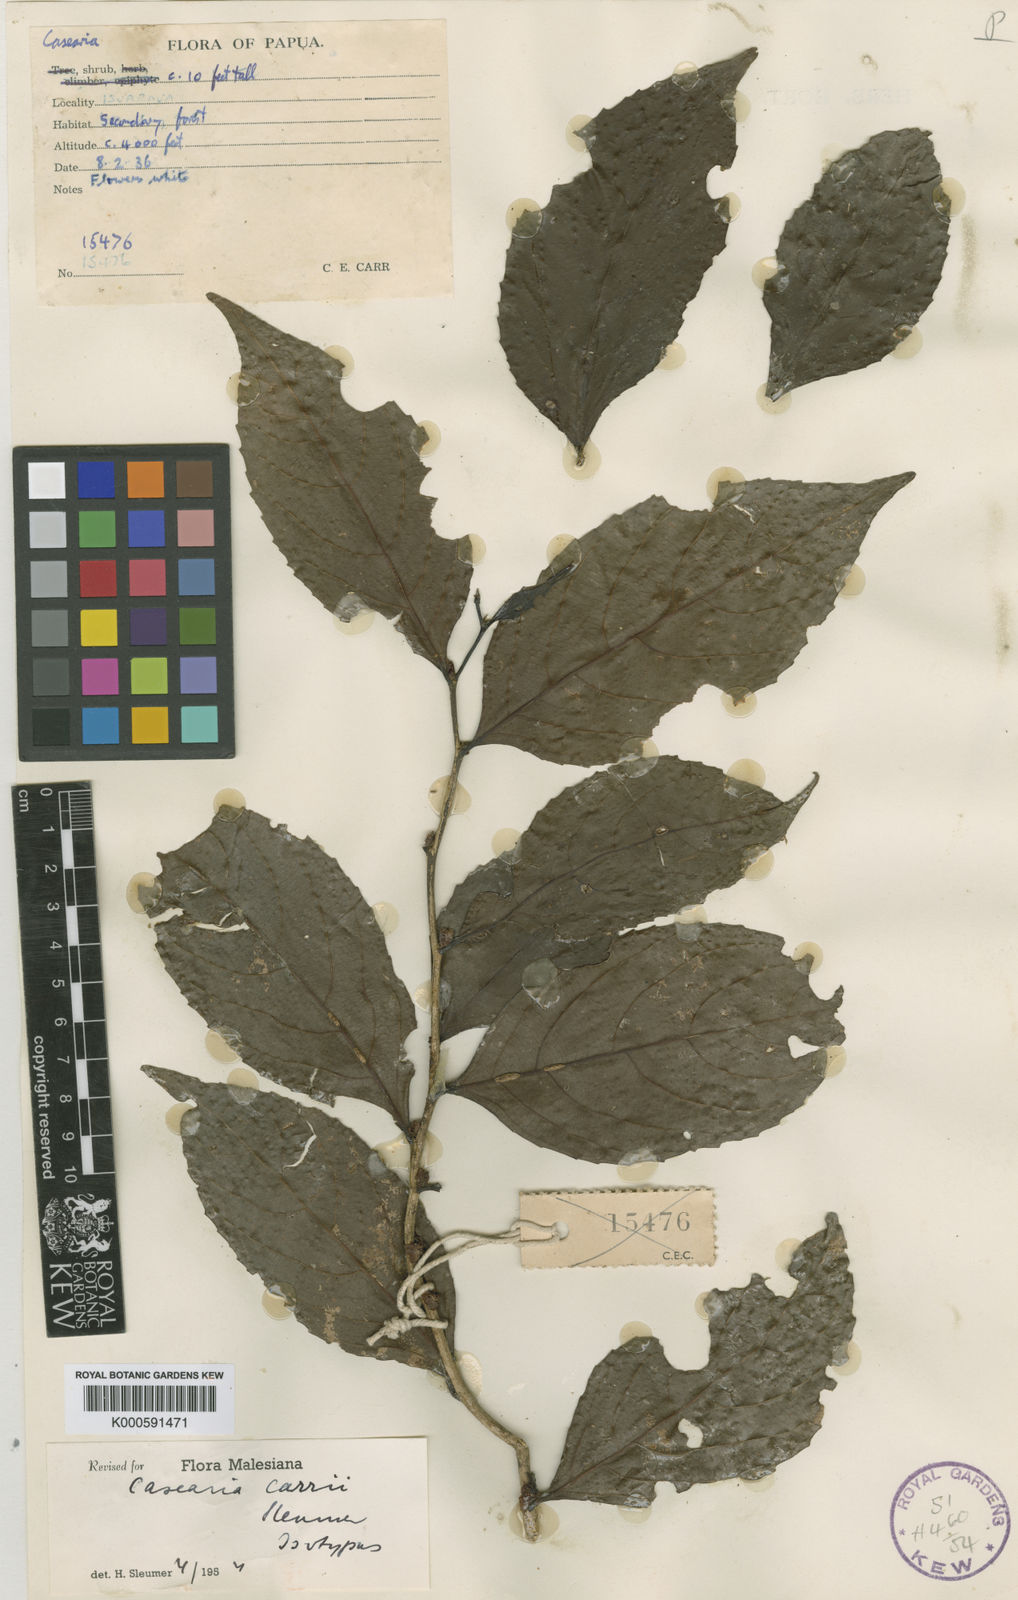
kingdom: Plantae
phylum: Tracheophyta
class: Magnoliopsida
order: Malpighiales
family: Salicaceae
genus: Casearia
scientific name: Casearia carrii
